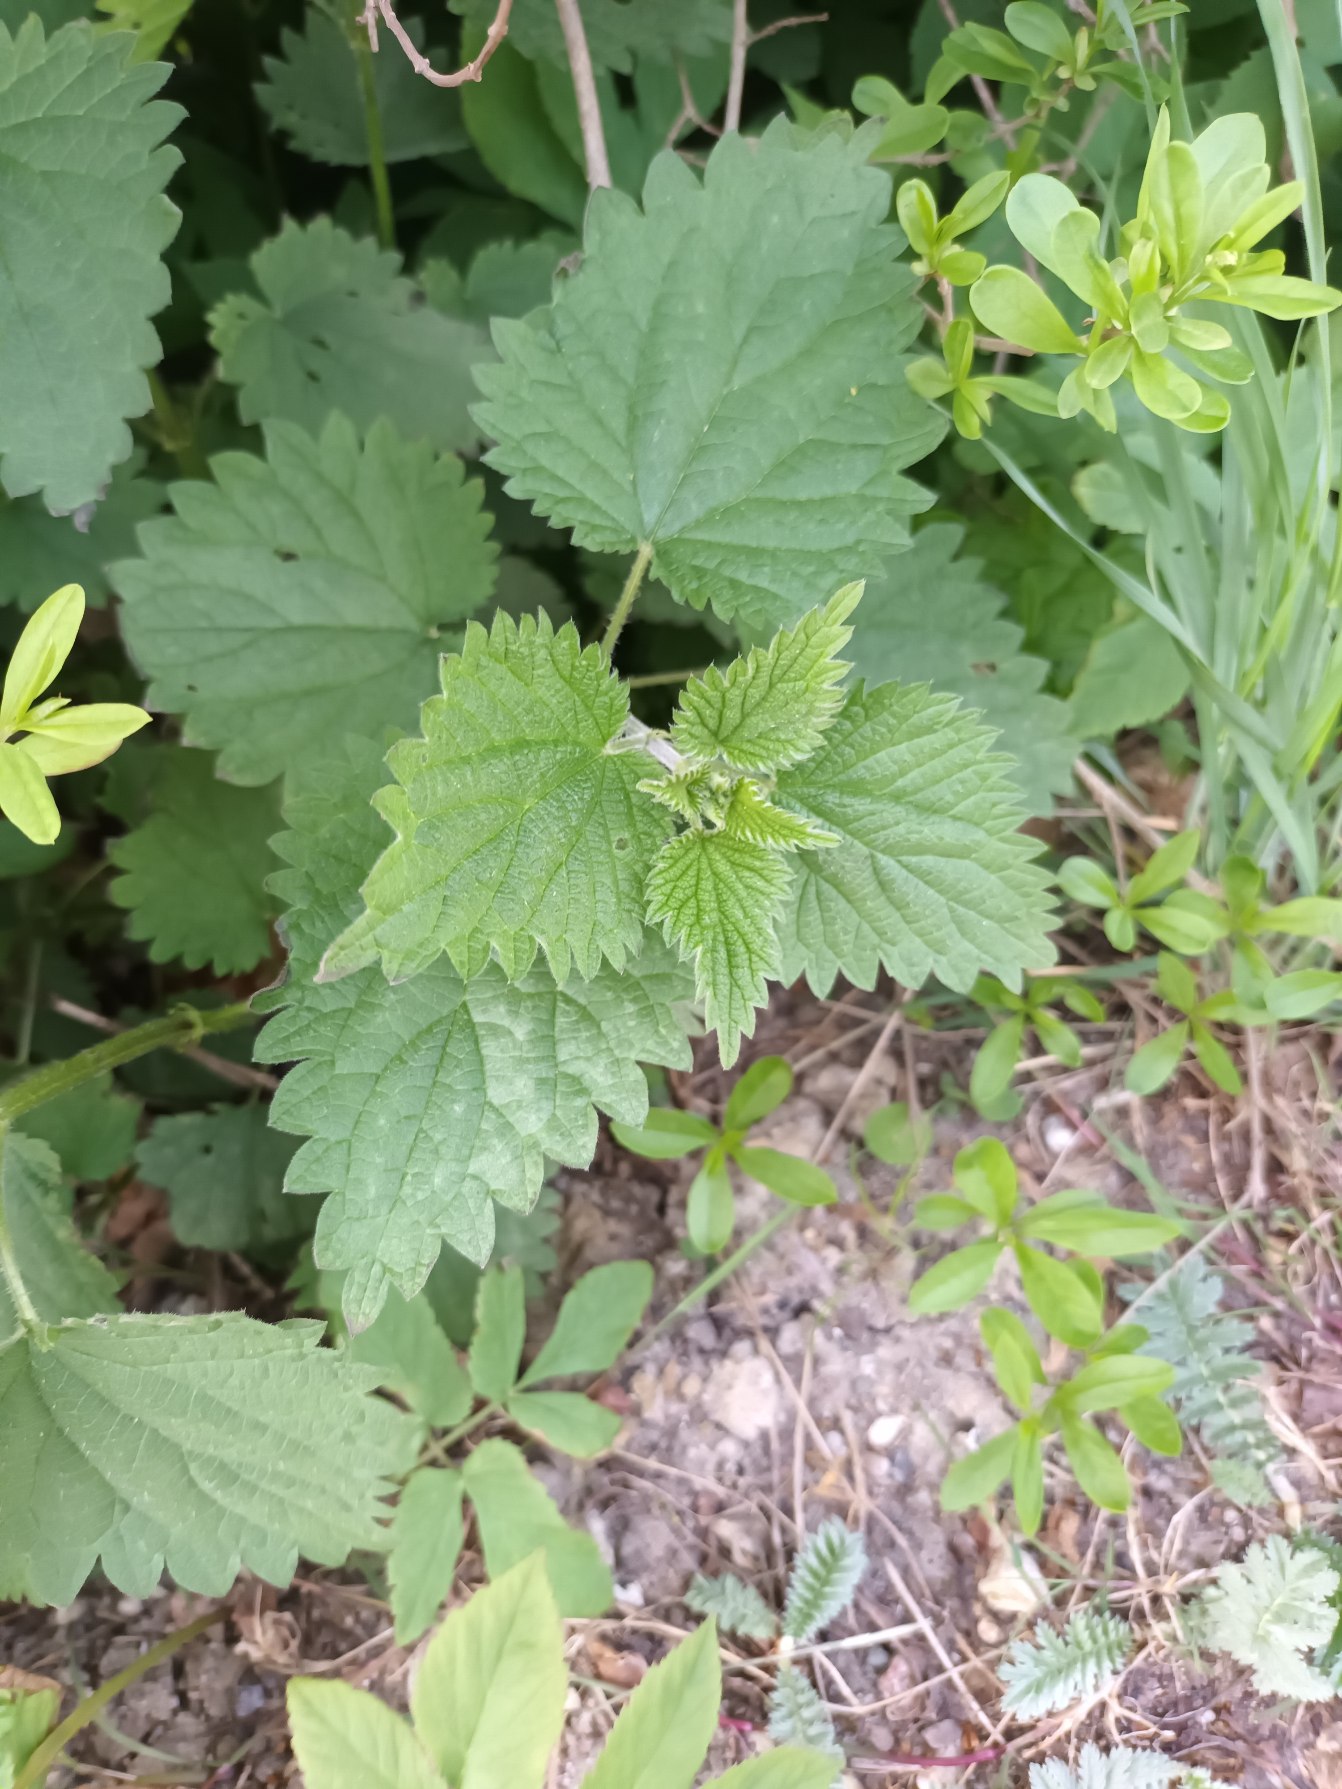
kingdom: Plantae
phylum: Tracheophyta
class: Magnoliopsida
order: Rosales
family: Urticaceae
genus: Urtica
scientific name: Urtica dioica
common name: Stor nælde
